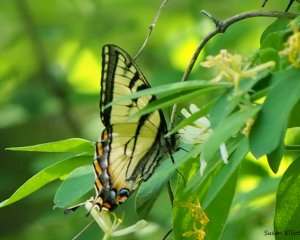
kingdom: Animalia
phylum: Arthropoda
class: Insecta
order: Lepidoptera
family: Papilionidae
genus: Pterourus
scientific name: Pterourus canadensis
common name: Canadian Tiger Swallowtail
